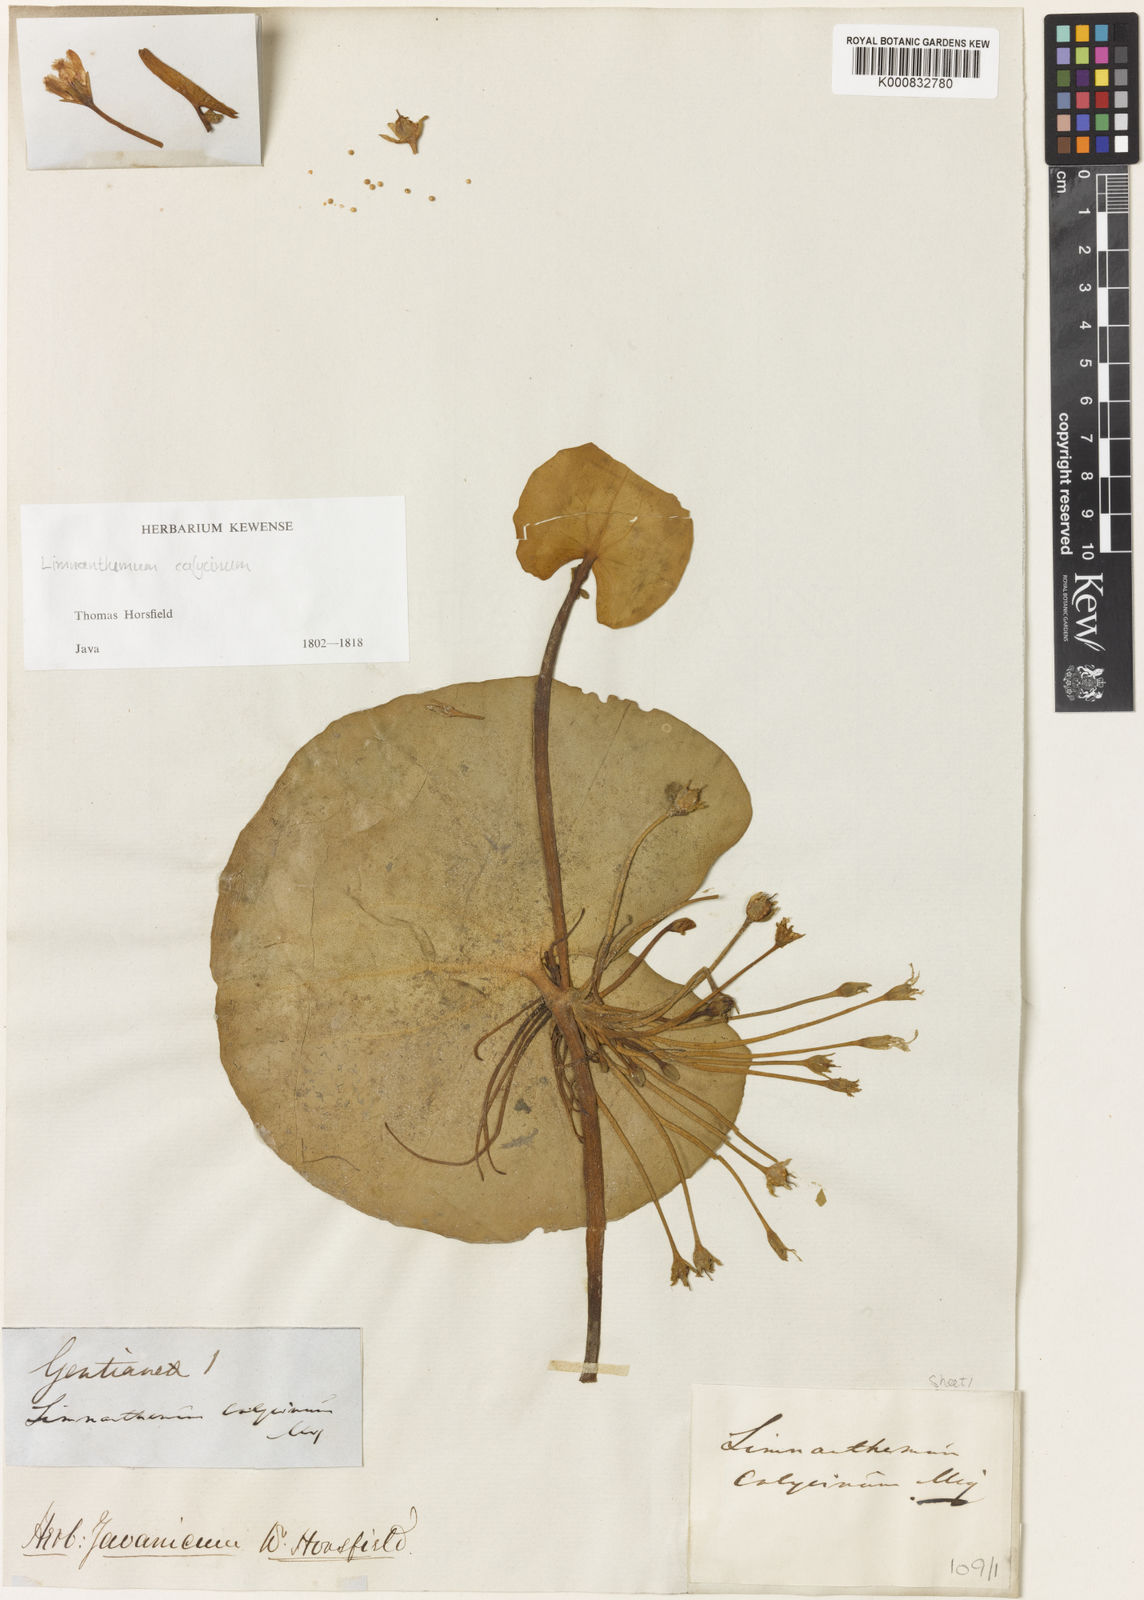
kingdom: Plantae
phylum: Tracheophyta
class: Magnoliopsida
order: Asterales
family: Menyanthaceae
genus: Nymphoides
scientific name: Nymphoides
